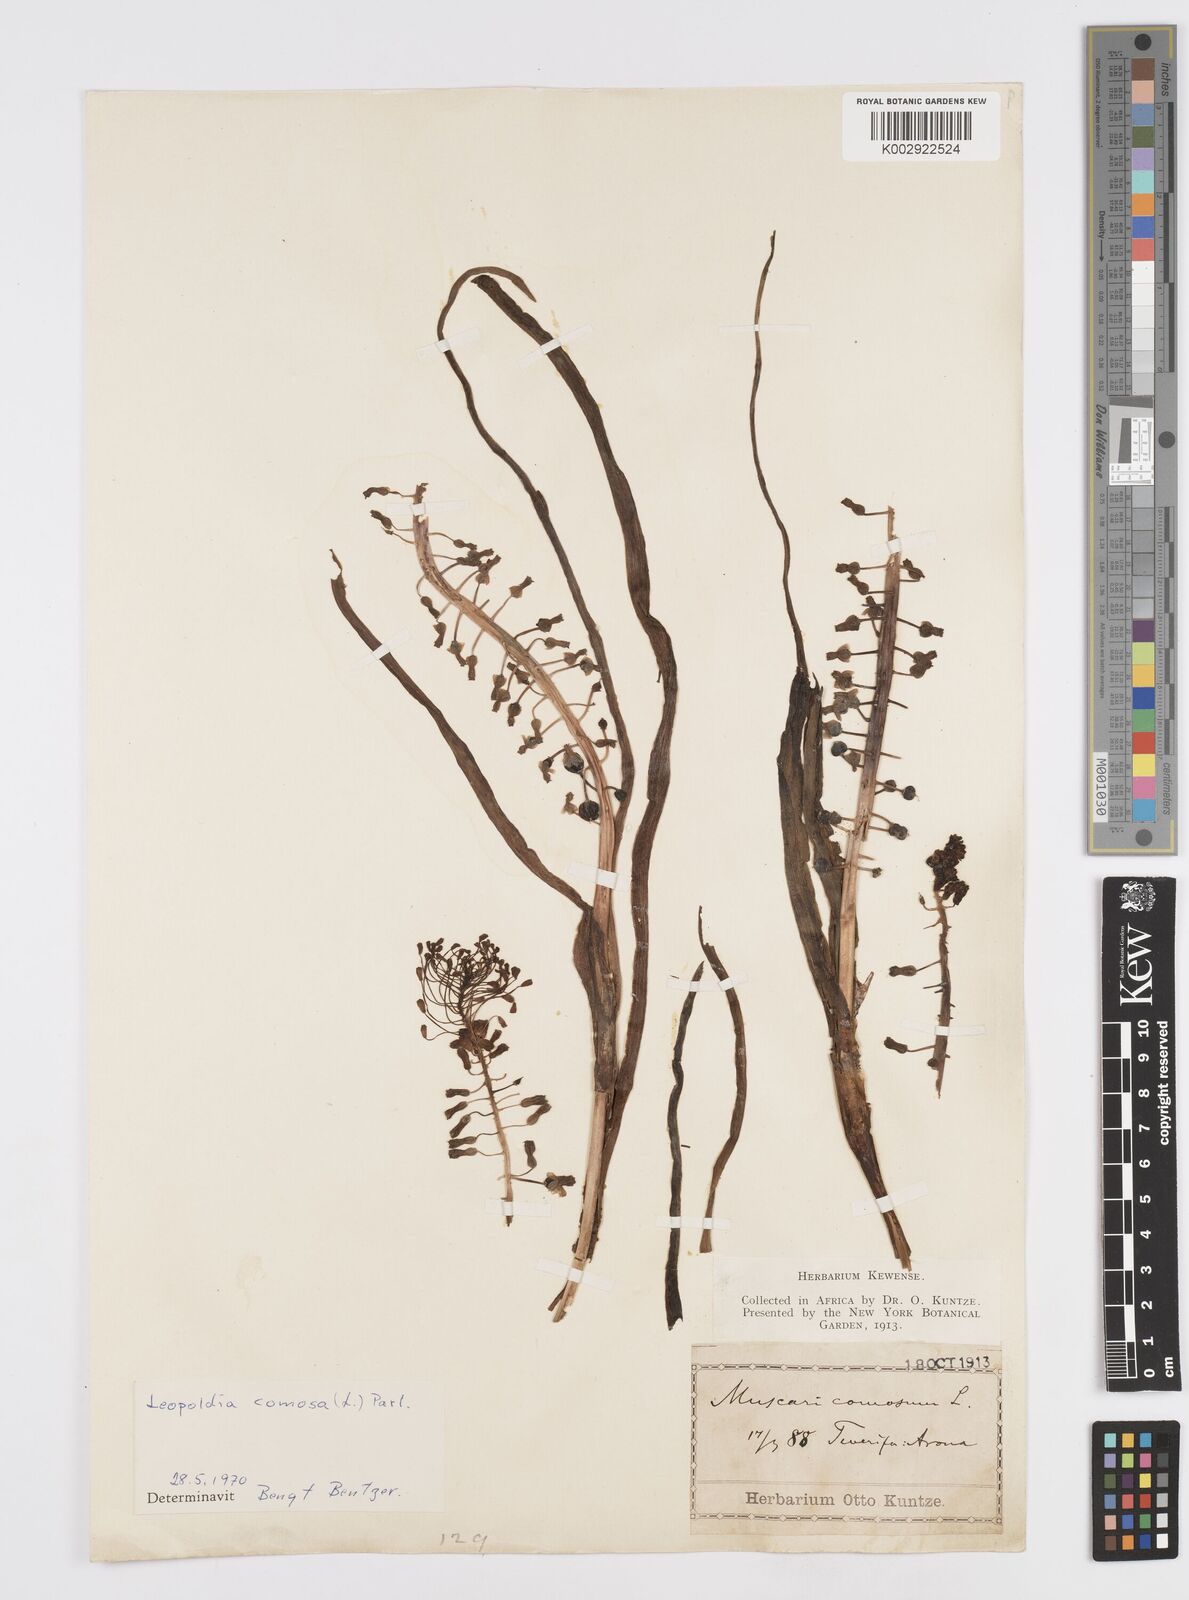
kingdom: Plantae
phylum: Tracheophyta
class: Liliopsida
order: Asparagales
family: Asparagaceae
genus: Muscari
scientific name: Muscari comosum
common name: Tassel hyacinth
